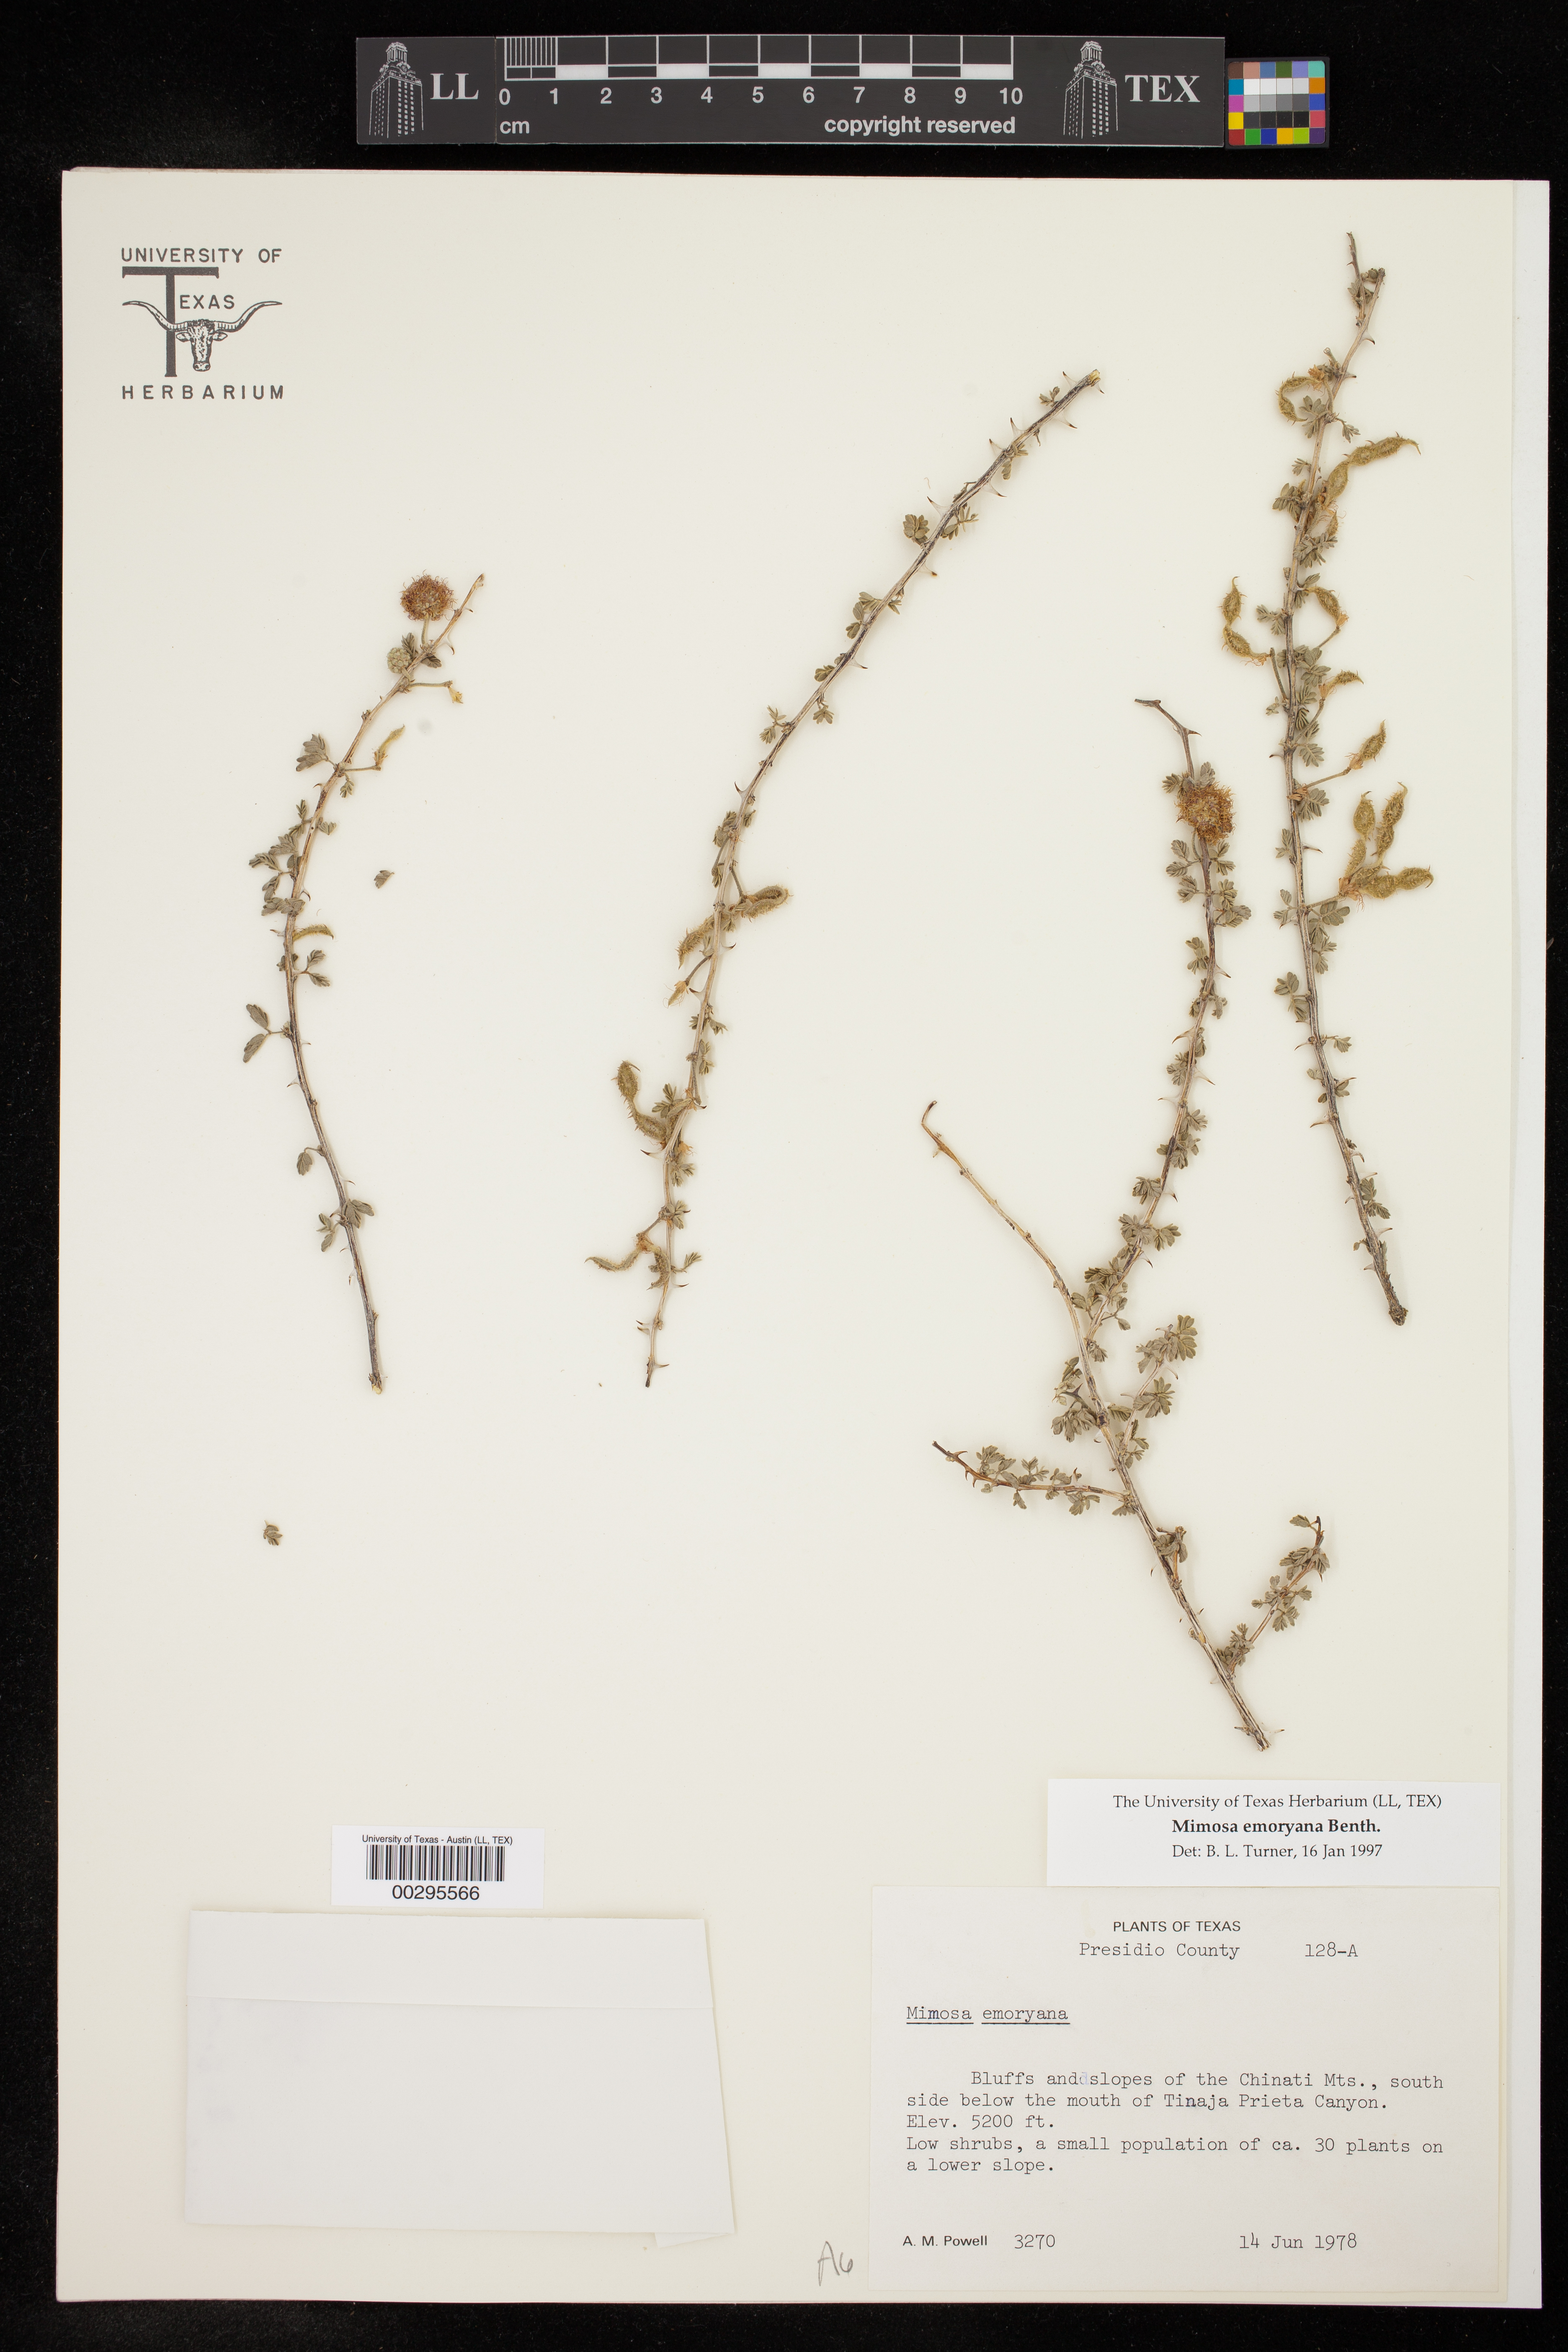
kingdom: Plantae
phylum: Tracheophyta
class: Magnoliopsida
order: Fabales
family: Fabaceae
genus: Mimosa
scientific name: Mimosa emoryana
